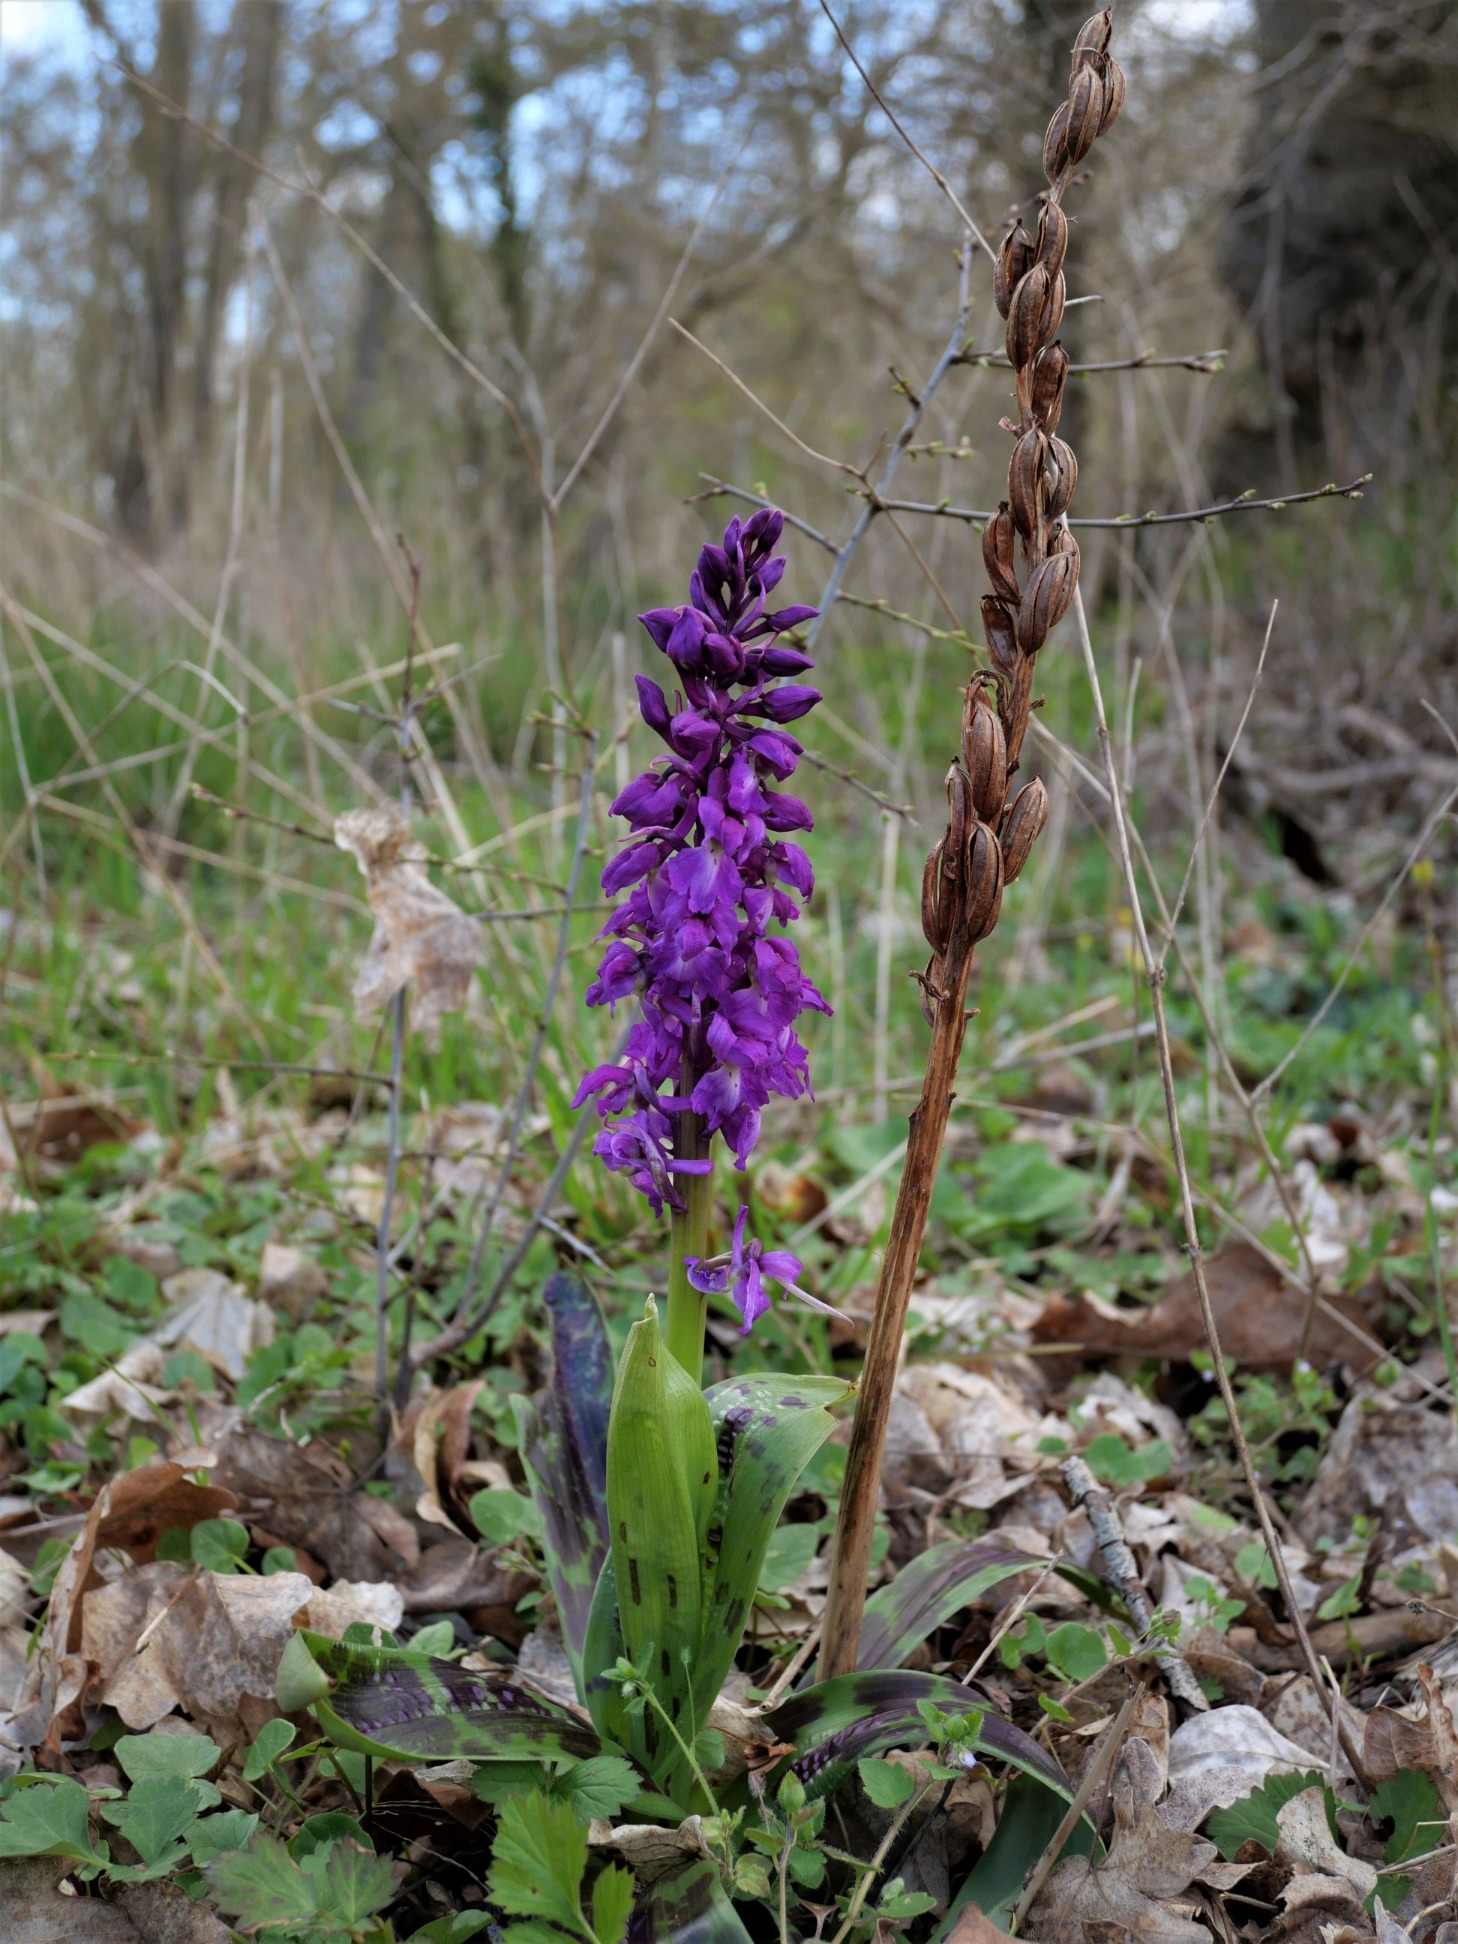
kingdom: Plantae
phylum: Tracheophyta
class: Liliopsida
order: Asparagales
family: Orchidaceae
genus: Orchis
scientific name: Orchis mascula
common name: Tyndakset gøgeurt
